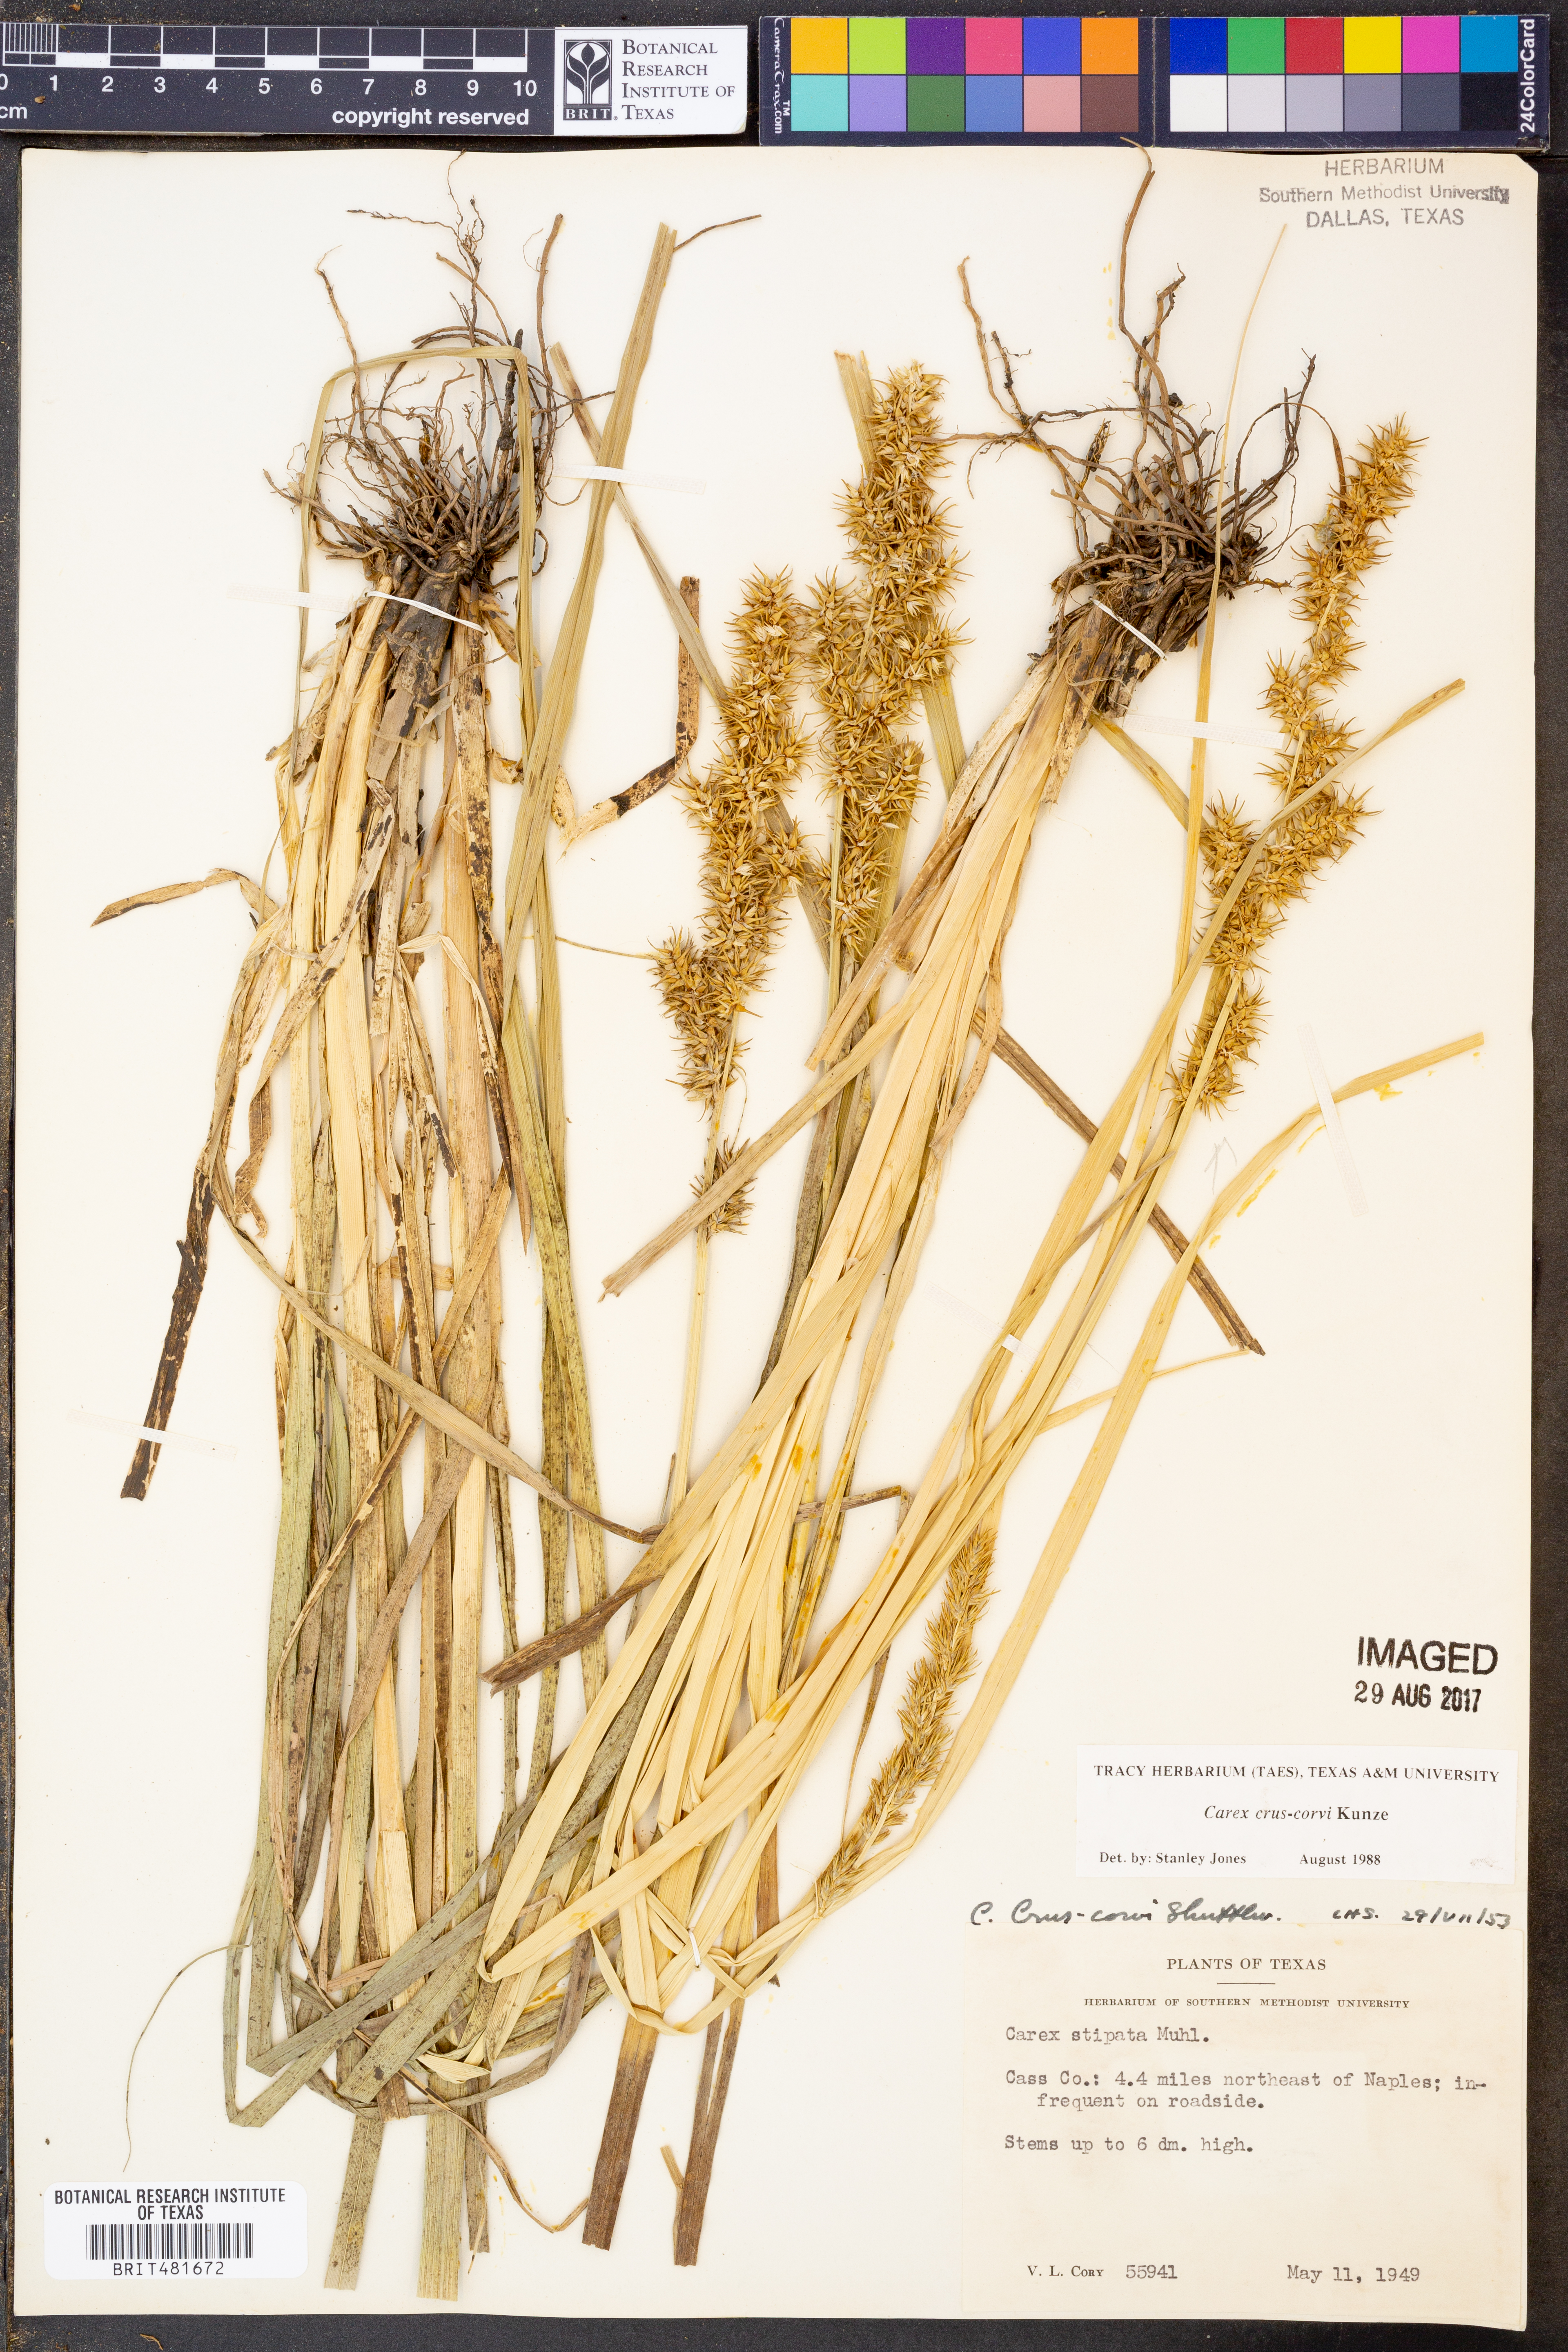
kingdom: Plantae
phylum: Tracheophyta
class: Liliopsida
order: Poales
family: Cyperaceae
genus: Carex
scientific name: Carex crus-corvi
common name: Crow-spur sedge
